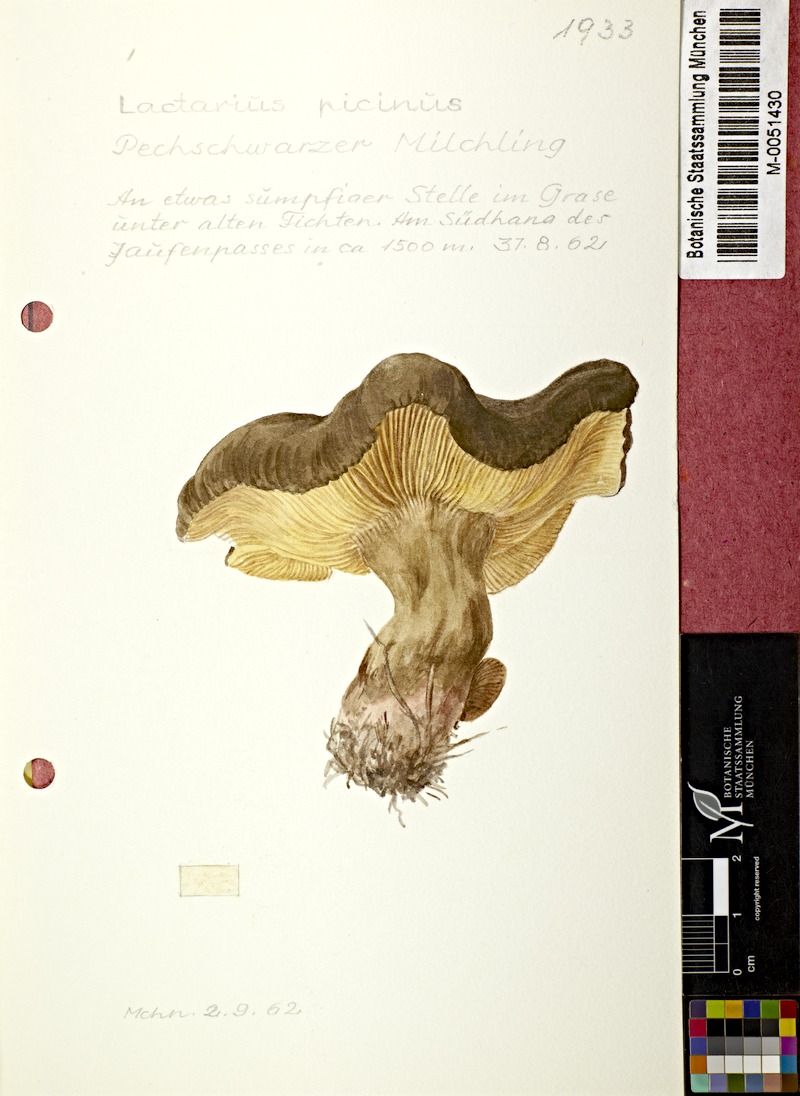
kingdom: Fungi
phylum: Basidiomycota
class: Agaricomycetes
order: Russulales
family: Russulaceae
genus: Lactarius
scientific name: Lactarius picinus
